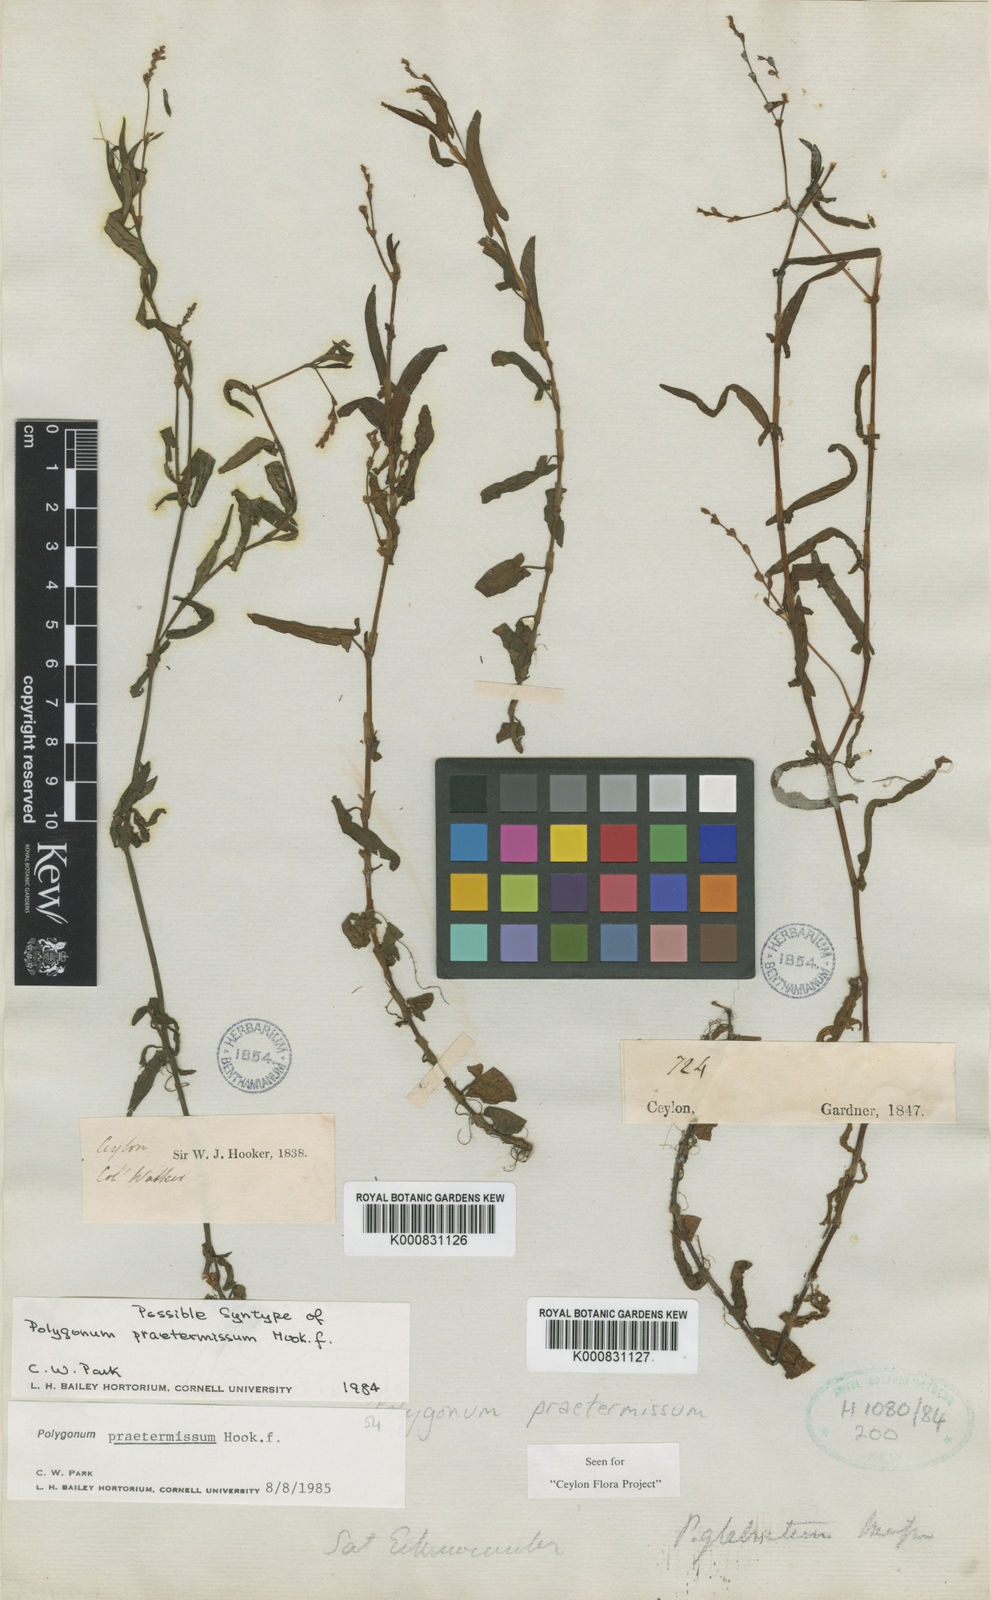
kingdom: Plantae
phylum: Tracheophyta
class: Magnoliopsida
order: Caryophyllales
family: Polygonaceae
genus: Persicaria
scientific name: Persicaria praetermissa
